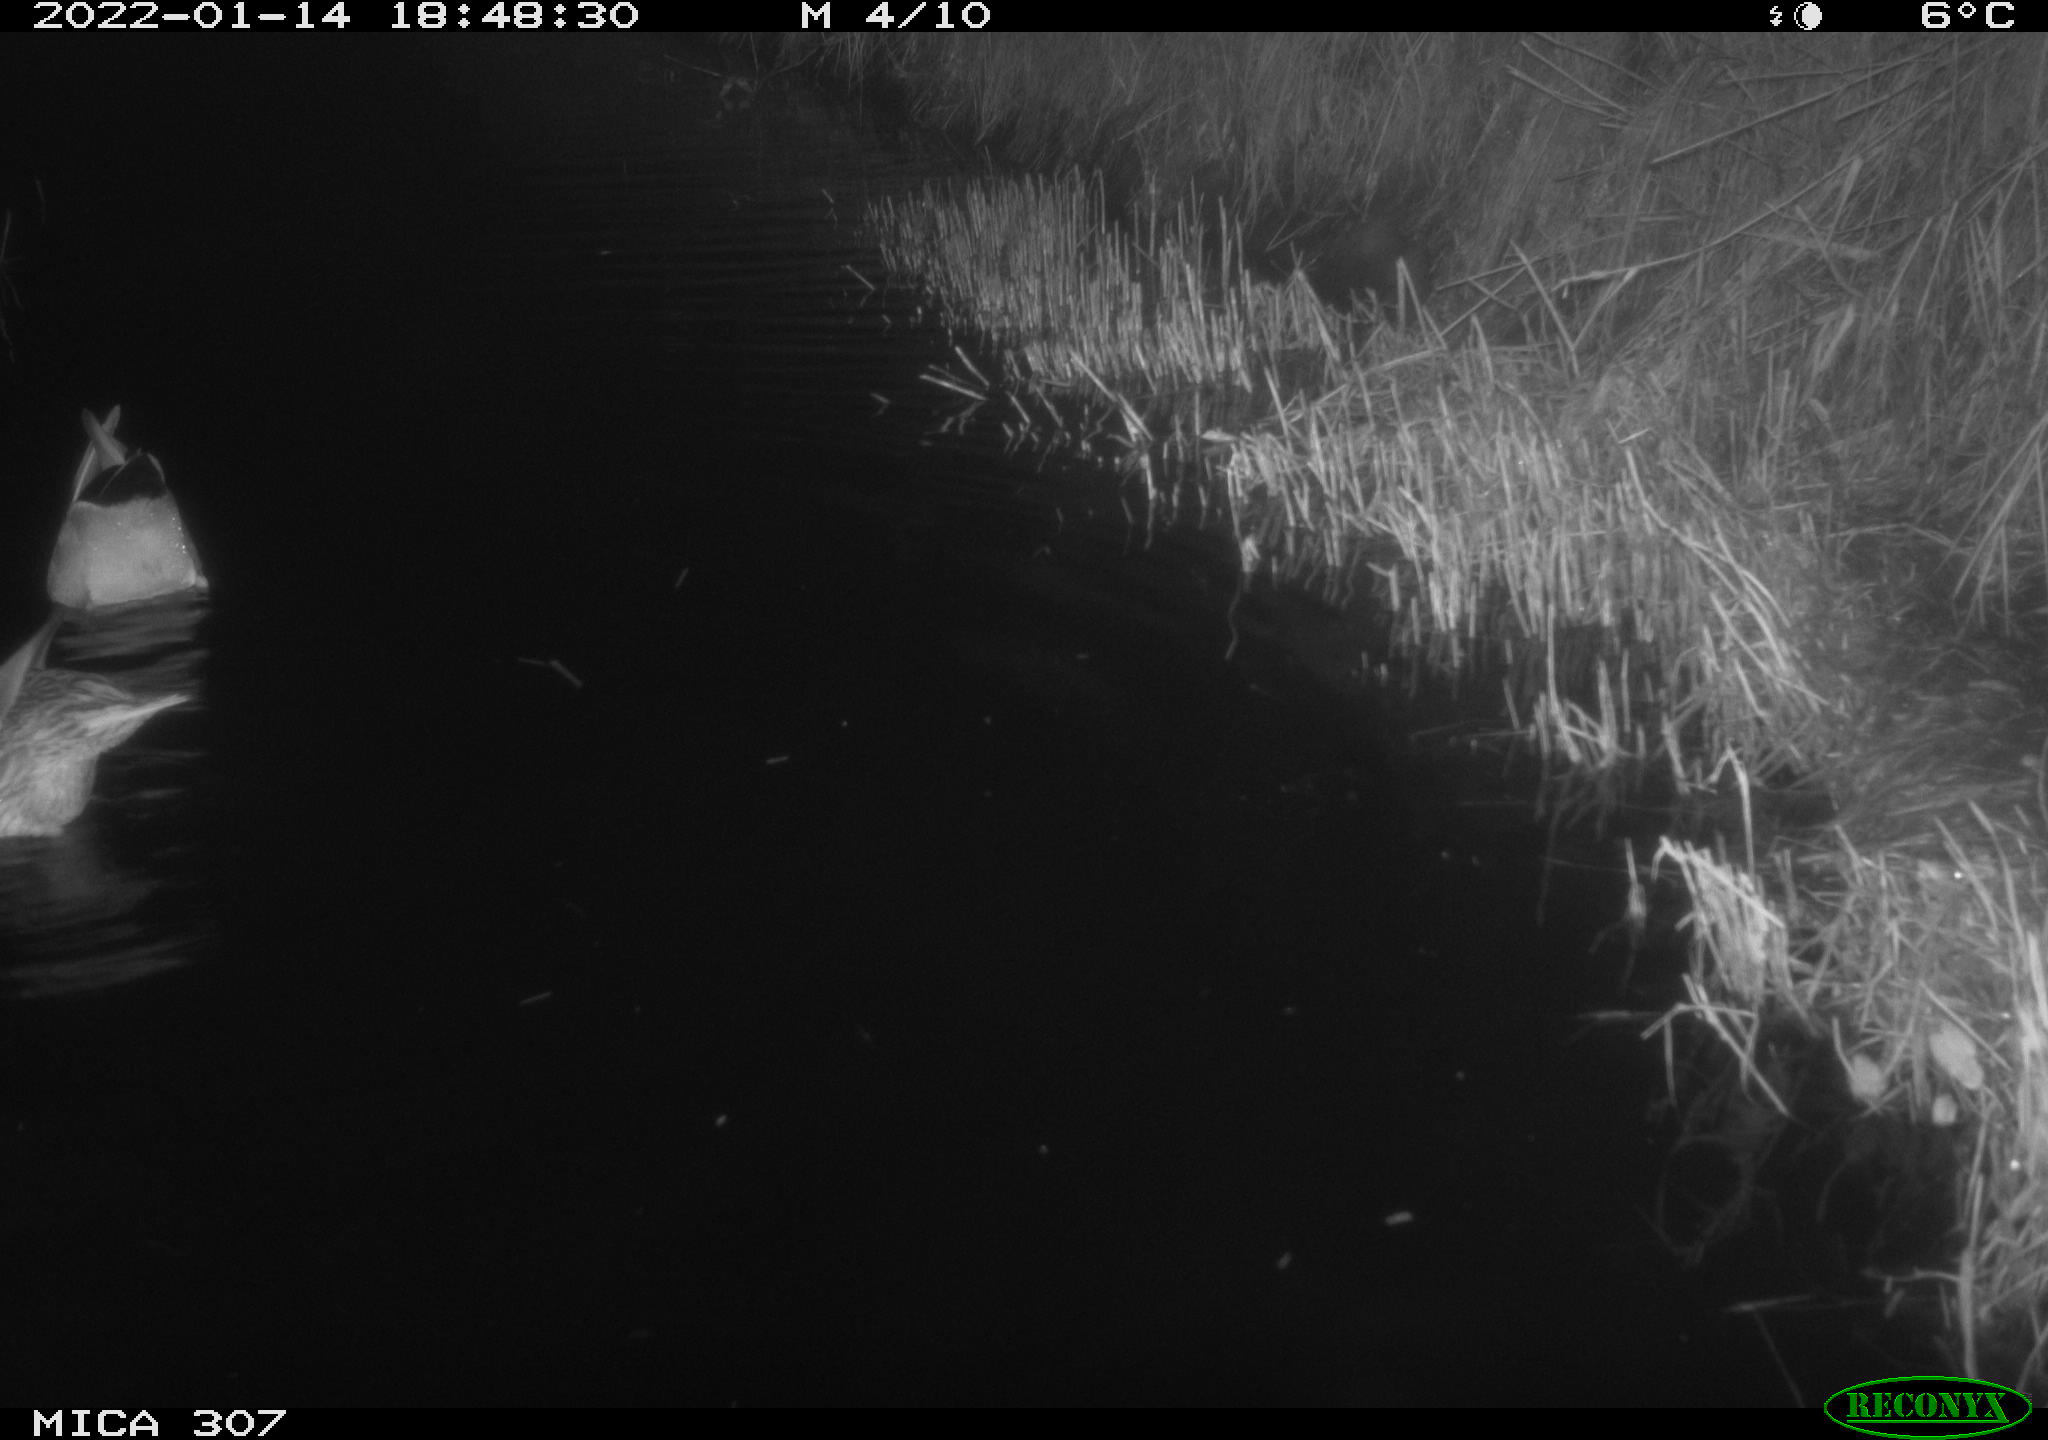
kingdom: Animalia
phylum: Chordata
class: Aves
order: Anseriformes
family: Anatidae
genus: Anas
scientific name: Anas
